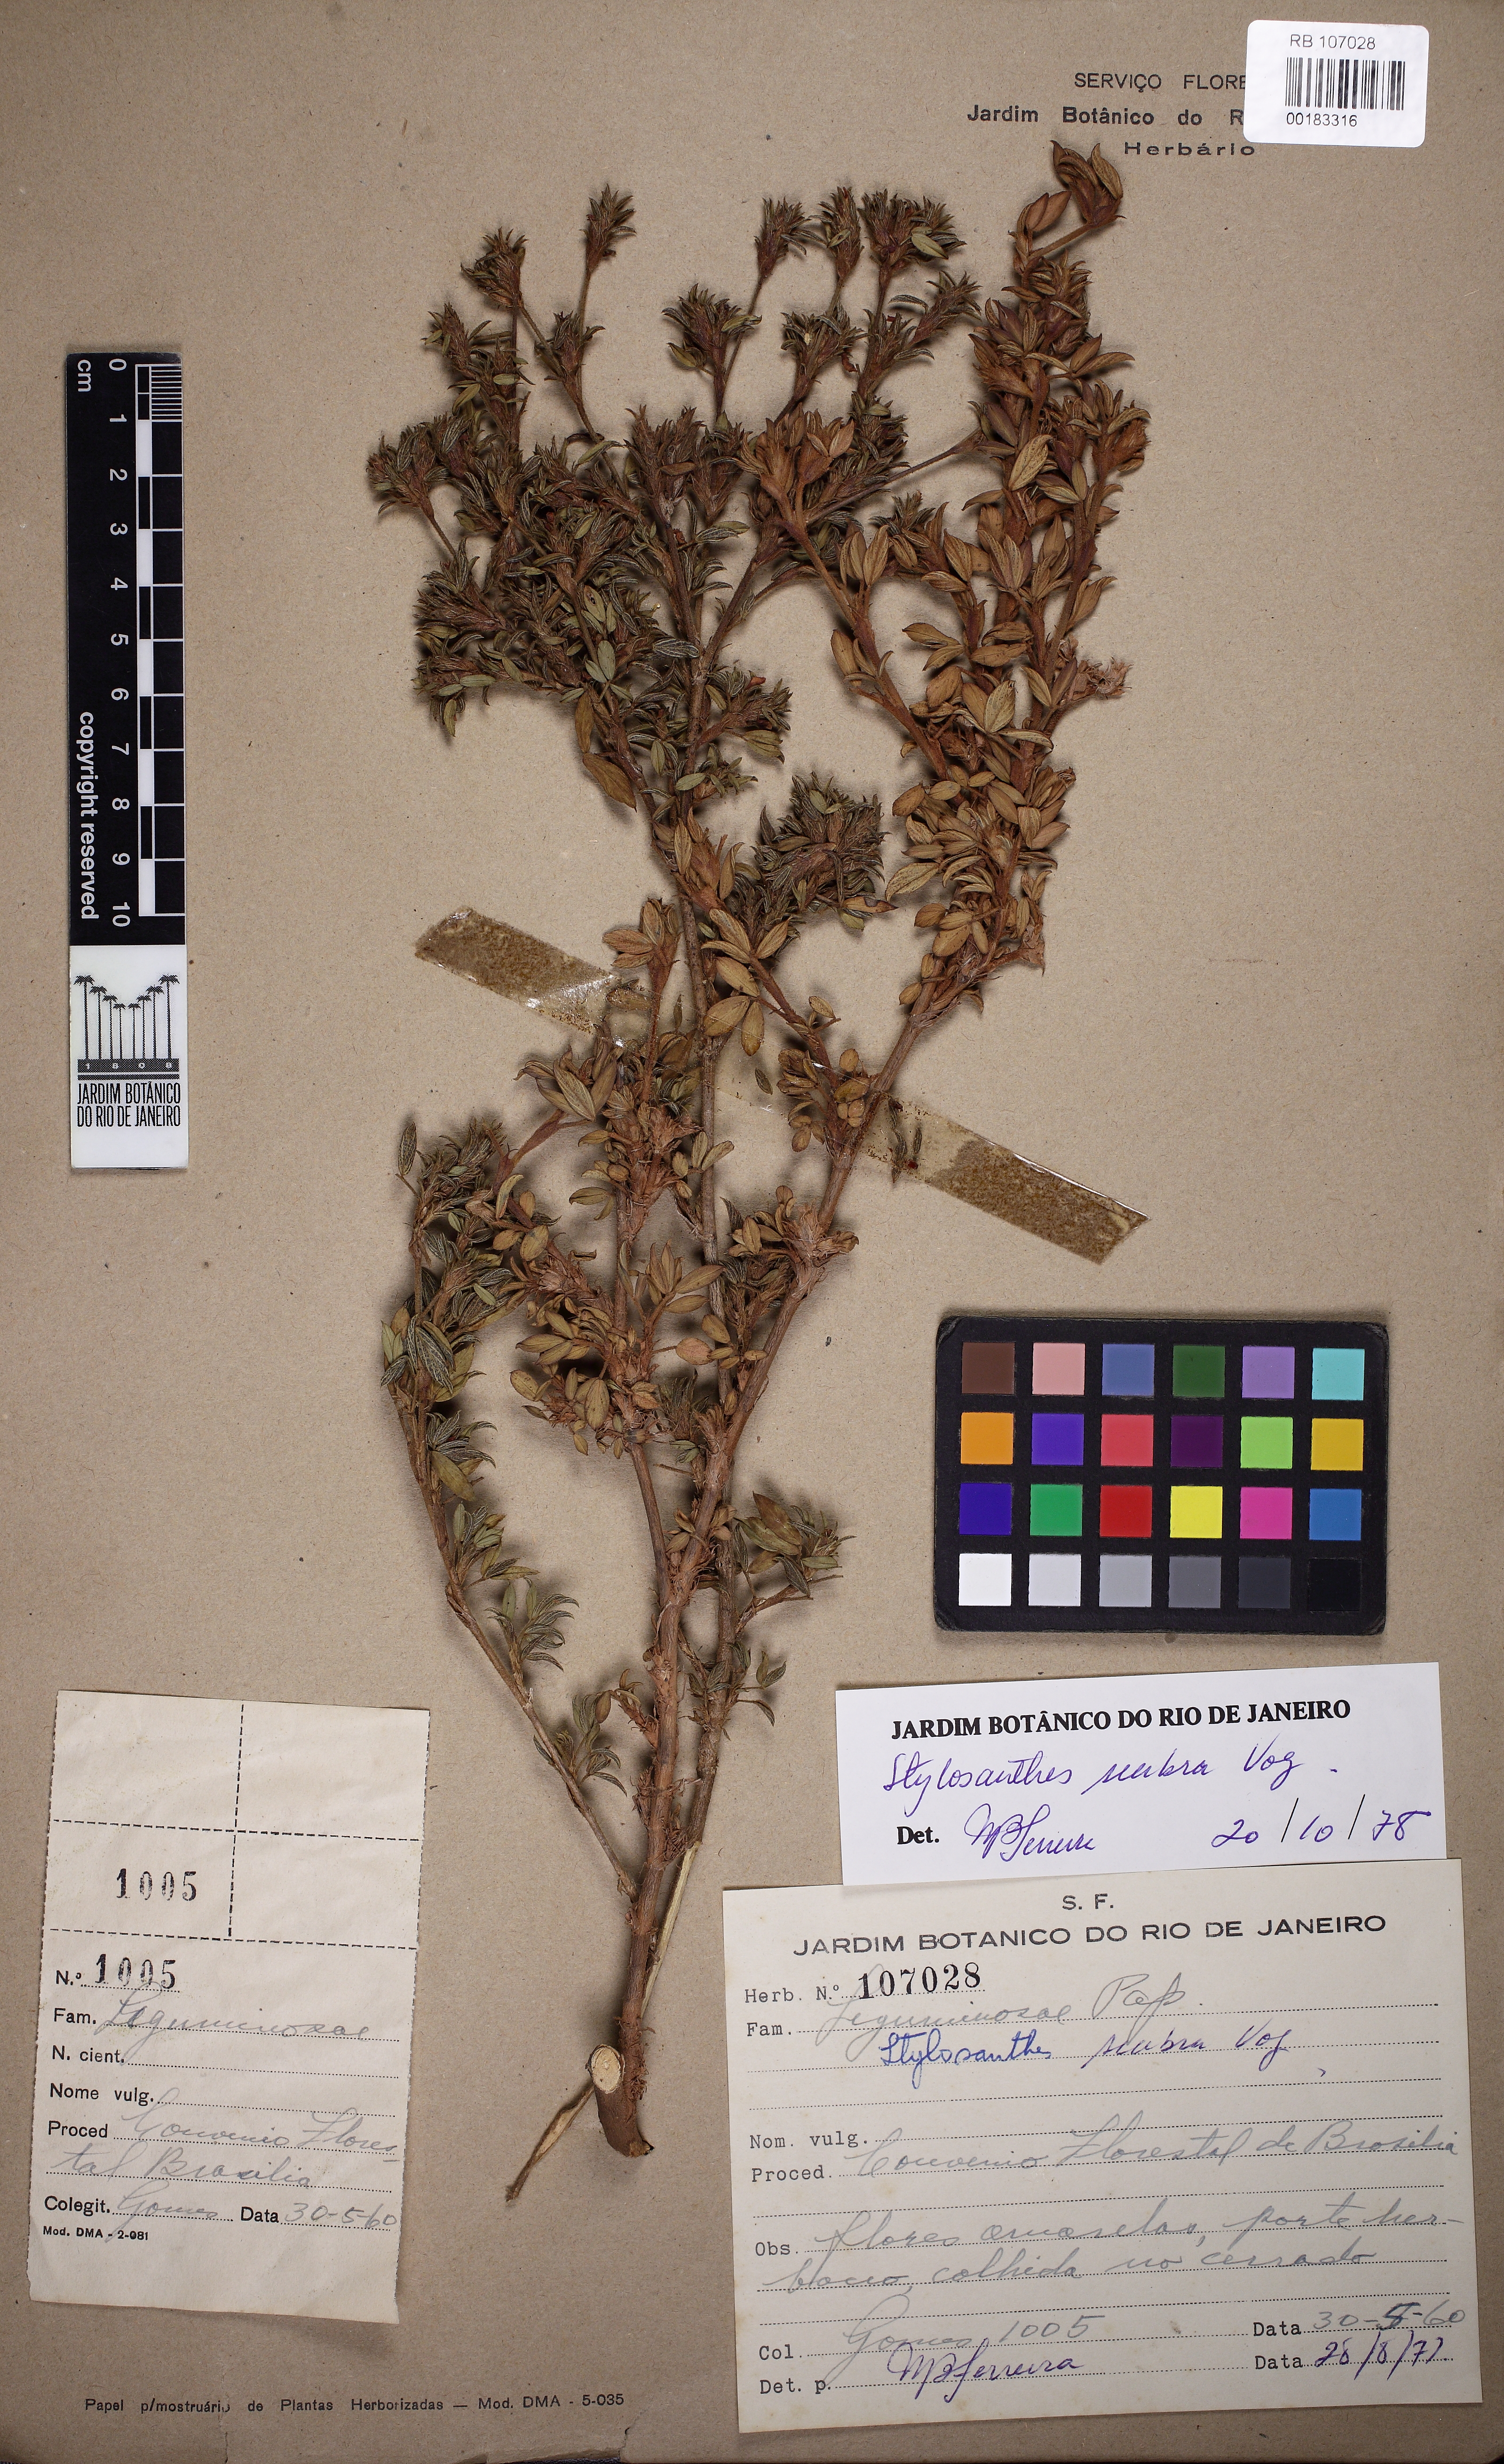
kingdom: Plantae
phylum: Tracheophyta
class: Magnoliopsida
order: Fabales
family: Fabaceae
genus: Stylosanthes
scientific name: Stylosanthes scabra
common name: Pencilflower
